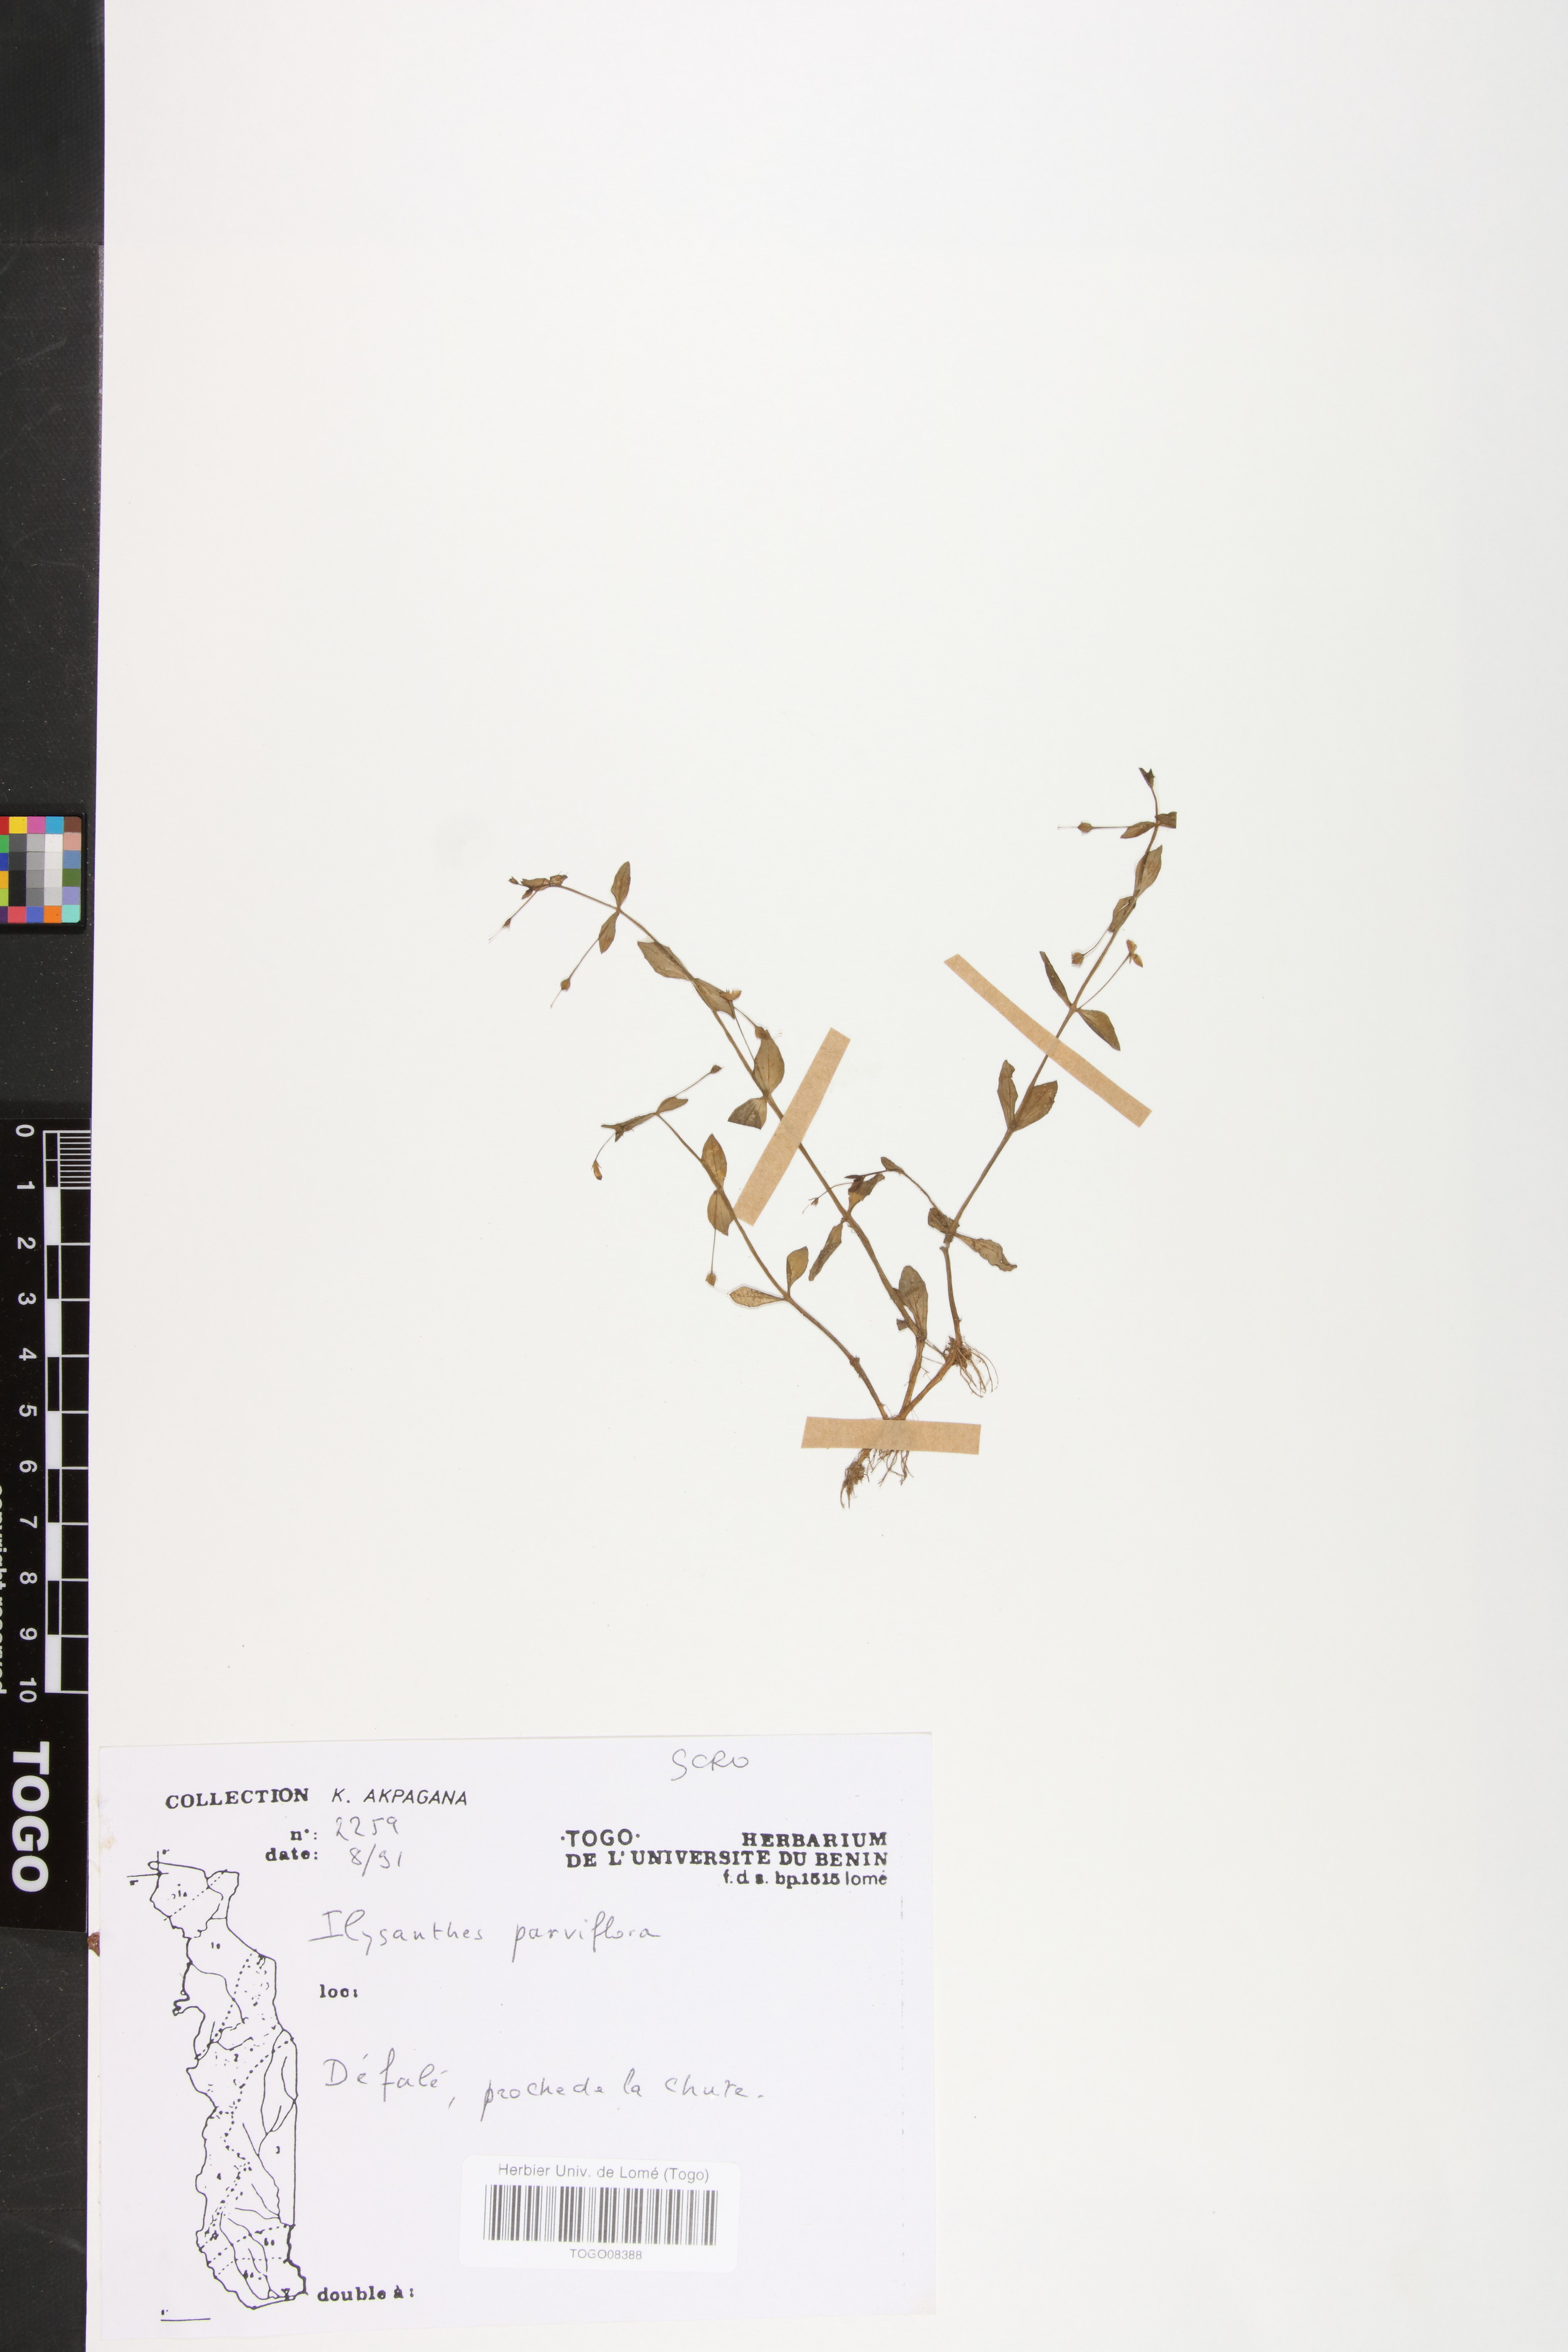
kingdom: Plantae
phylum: Tracheophyta
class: Magnoliopsida
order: Lamiales
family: Linderniaceae
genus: Lindernia
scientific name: Lindernia parviflora
